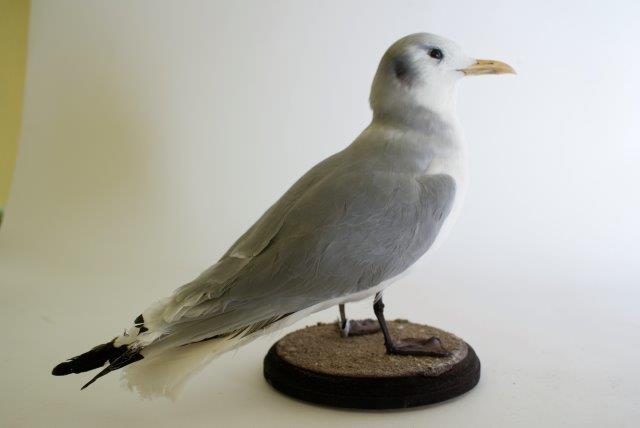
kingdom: Animalia
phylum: Chordata
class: Aves
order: Charadriiformes
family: Laridae
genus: Rissa
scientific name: Rissa tridactyla
